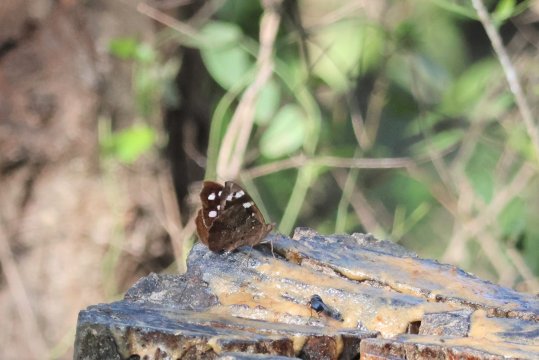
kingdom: Animalia
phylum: Arthropoda
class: Insecta
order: Lepidoptera
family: Nymphalidae
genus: Eunica
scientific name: Eunica tatila
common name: Florida Purplewing
